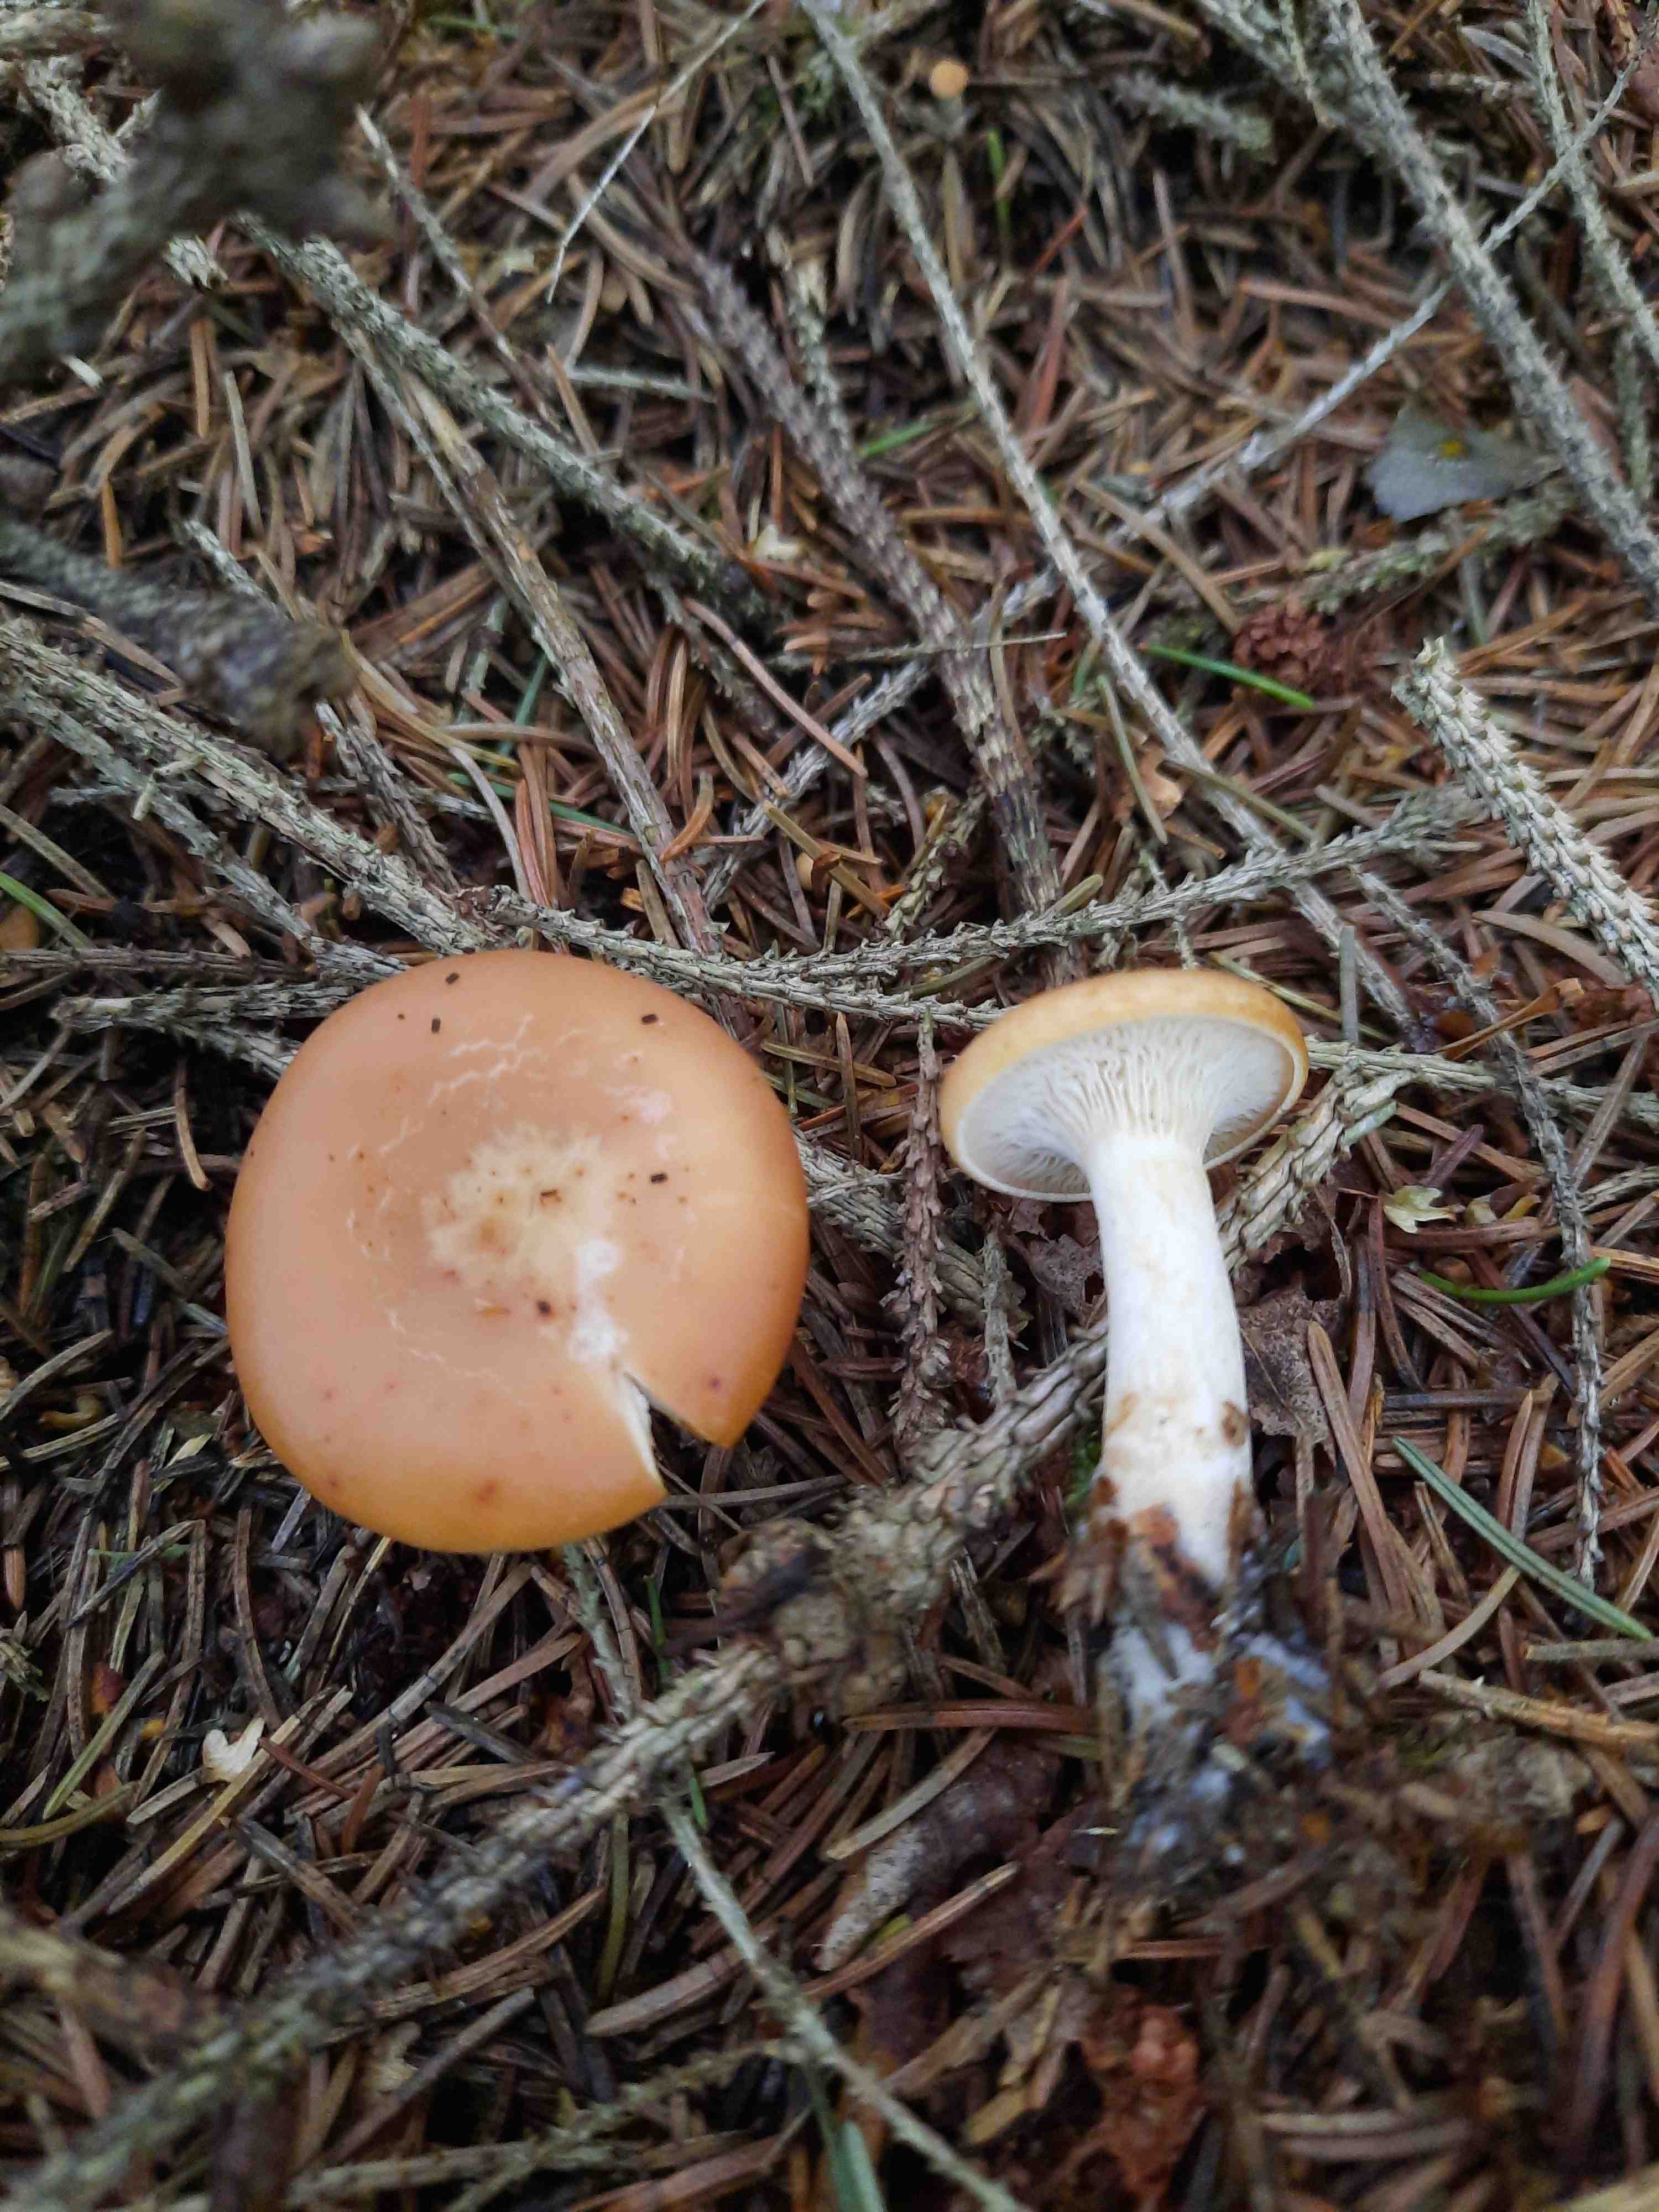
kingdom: Fungi
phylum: Basidiomycota
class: Agaricomycetes
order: Agaricales
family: Tricholomataceae
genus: Paralepista
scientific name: Paralepista flaccida
